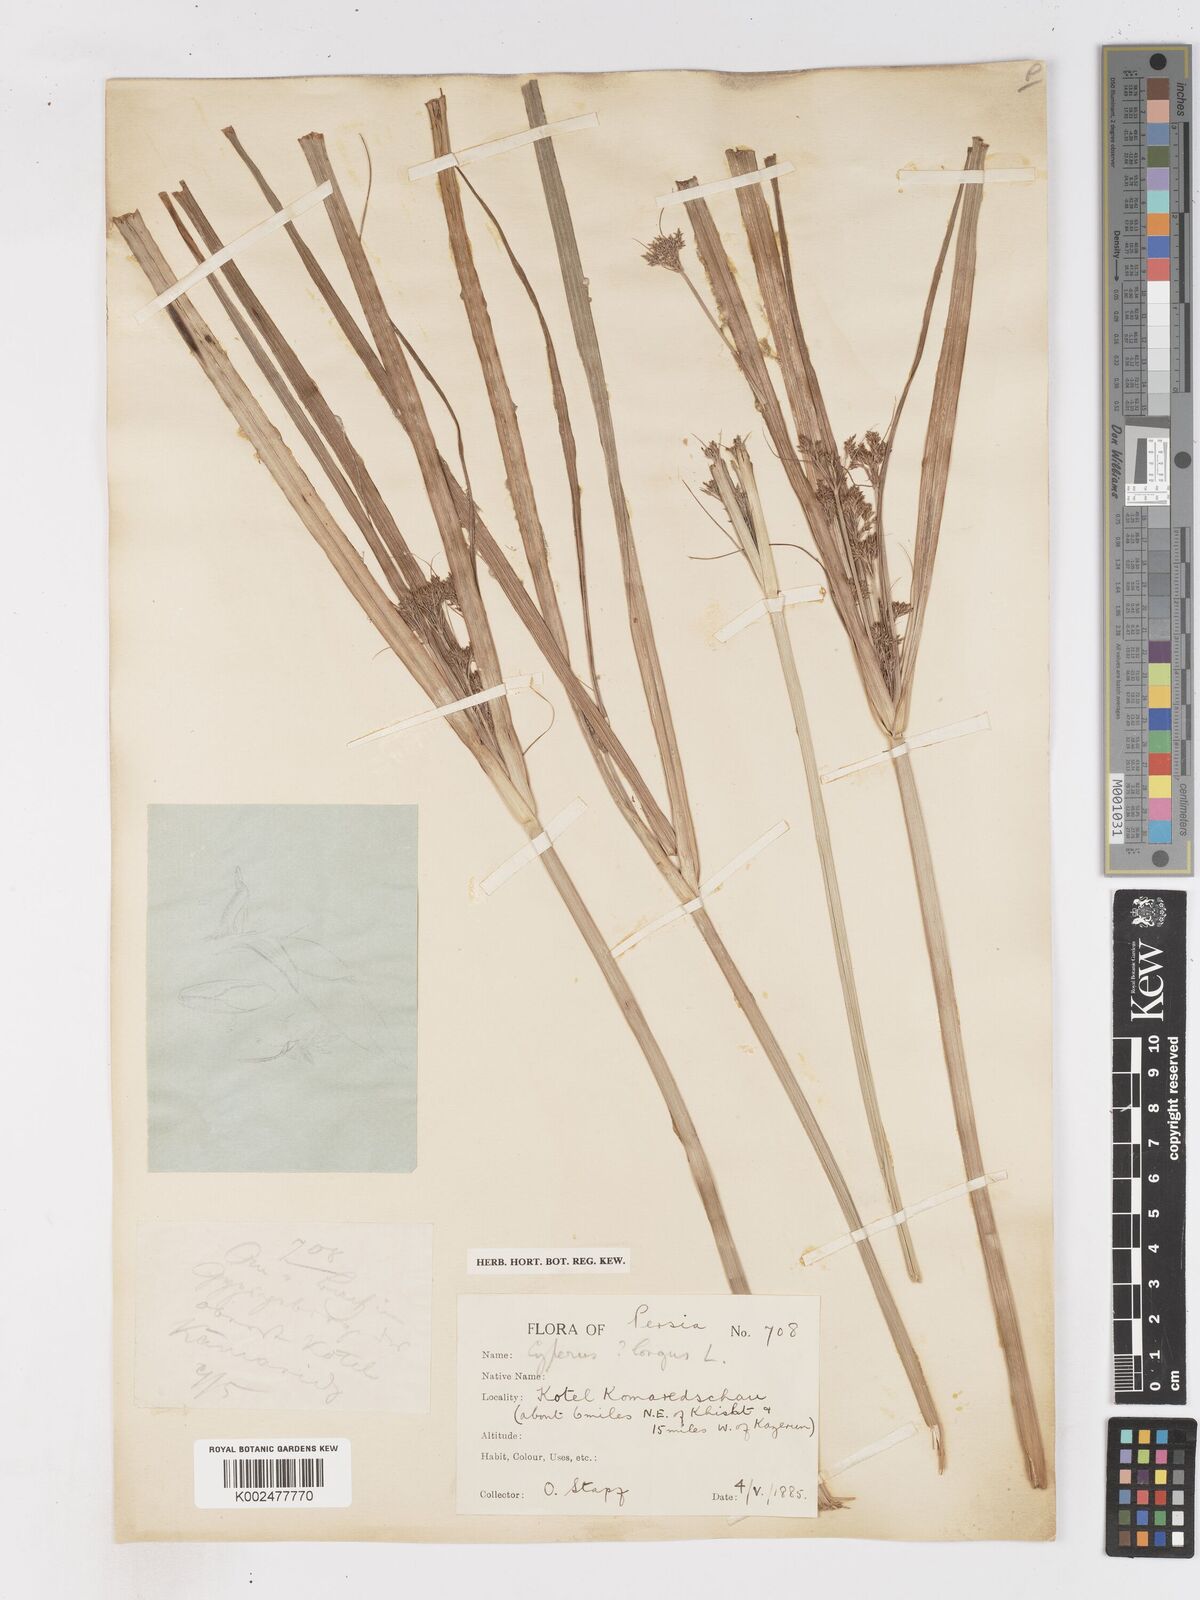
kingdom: Plantae
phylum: Tracheophyta
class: Liliopsida
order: Poales
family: Cyperaceae
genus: Cyperus
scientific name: Cyperus longus
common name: Galingale
